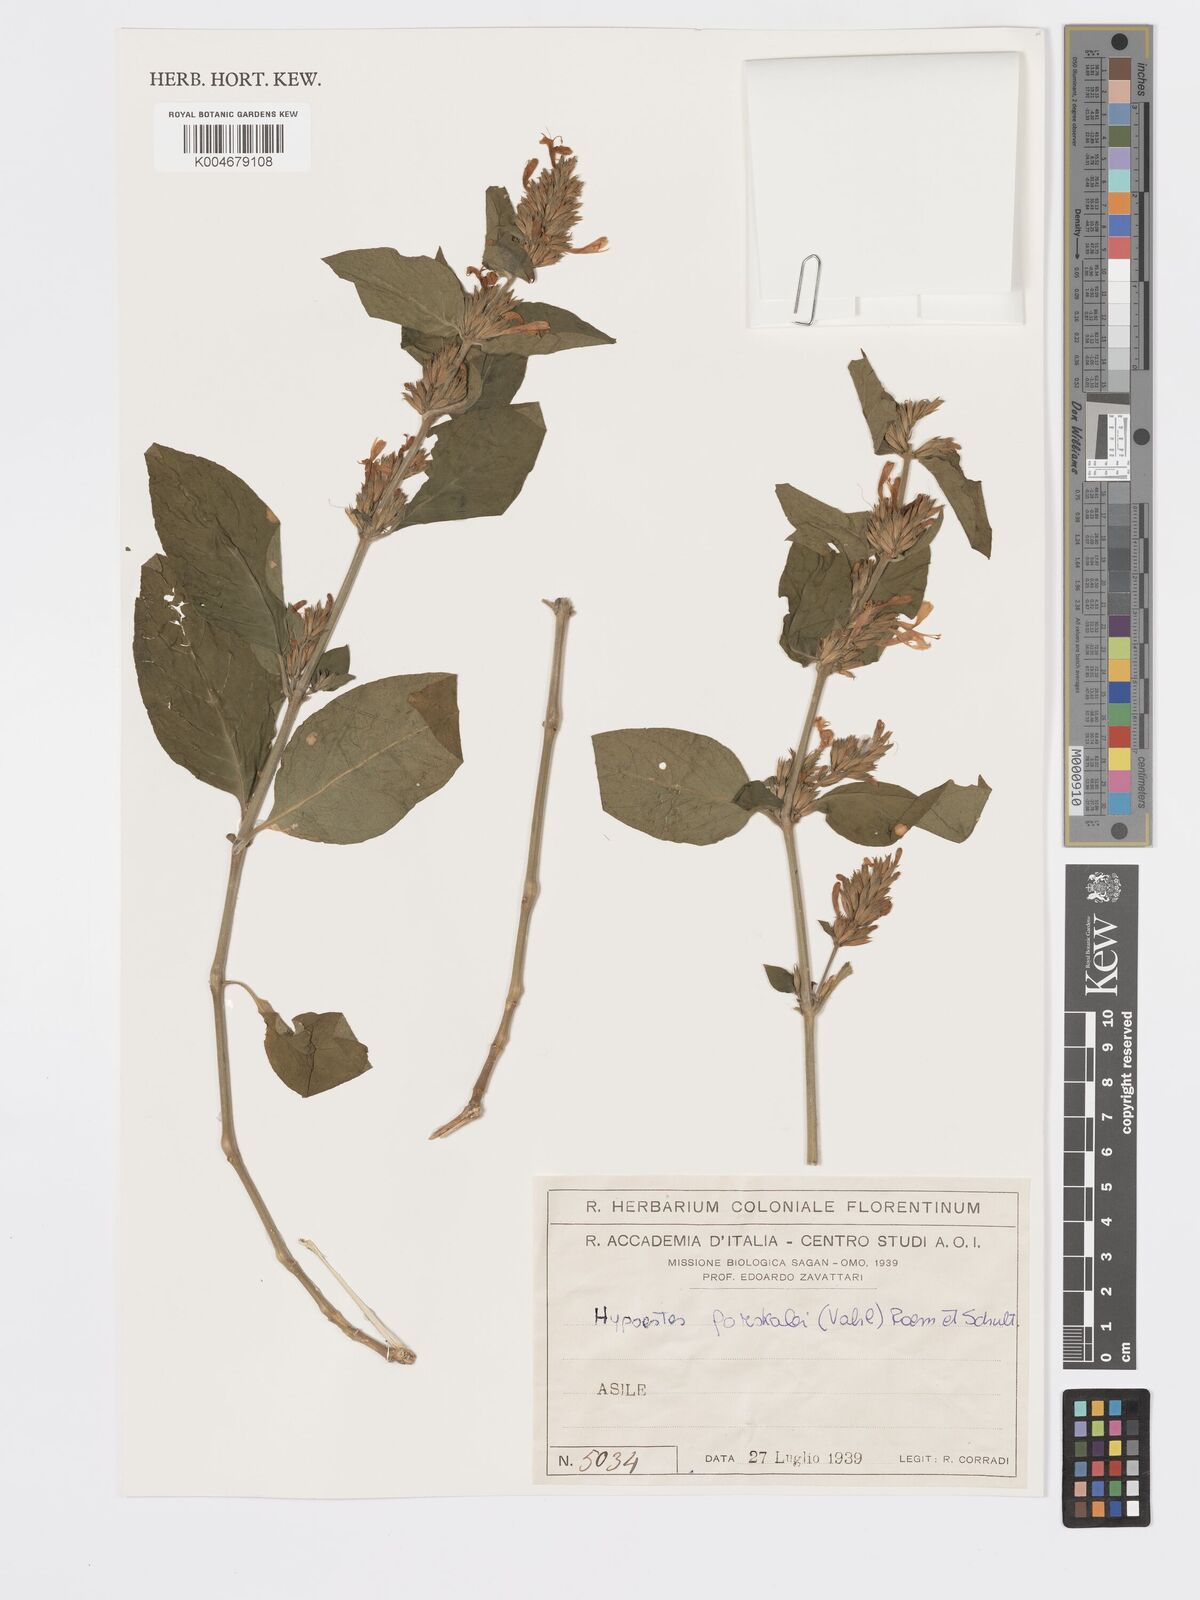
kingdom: Plantae
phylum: Tracheophyta
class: Magnoliopsida
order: Lamiales
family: Acanthaceae
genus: Hypoestes
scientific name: Hypoestes forskaolii
